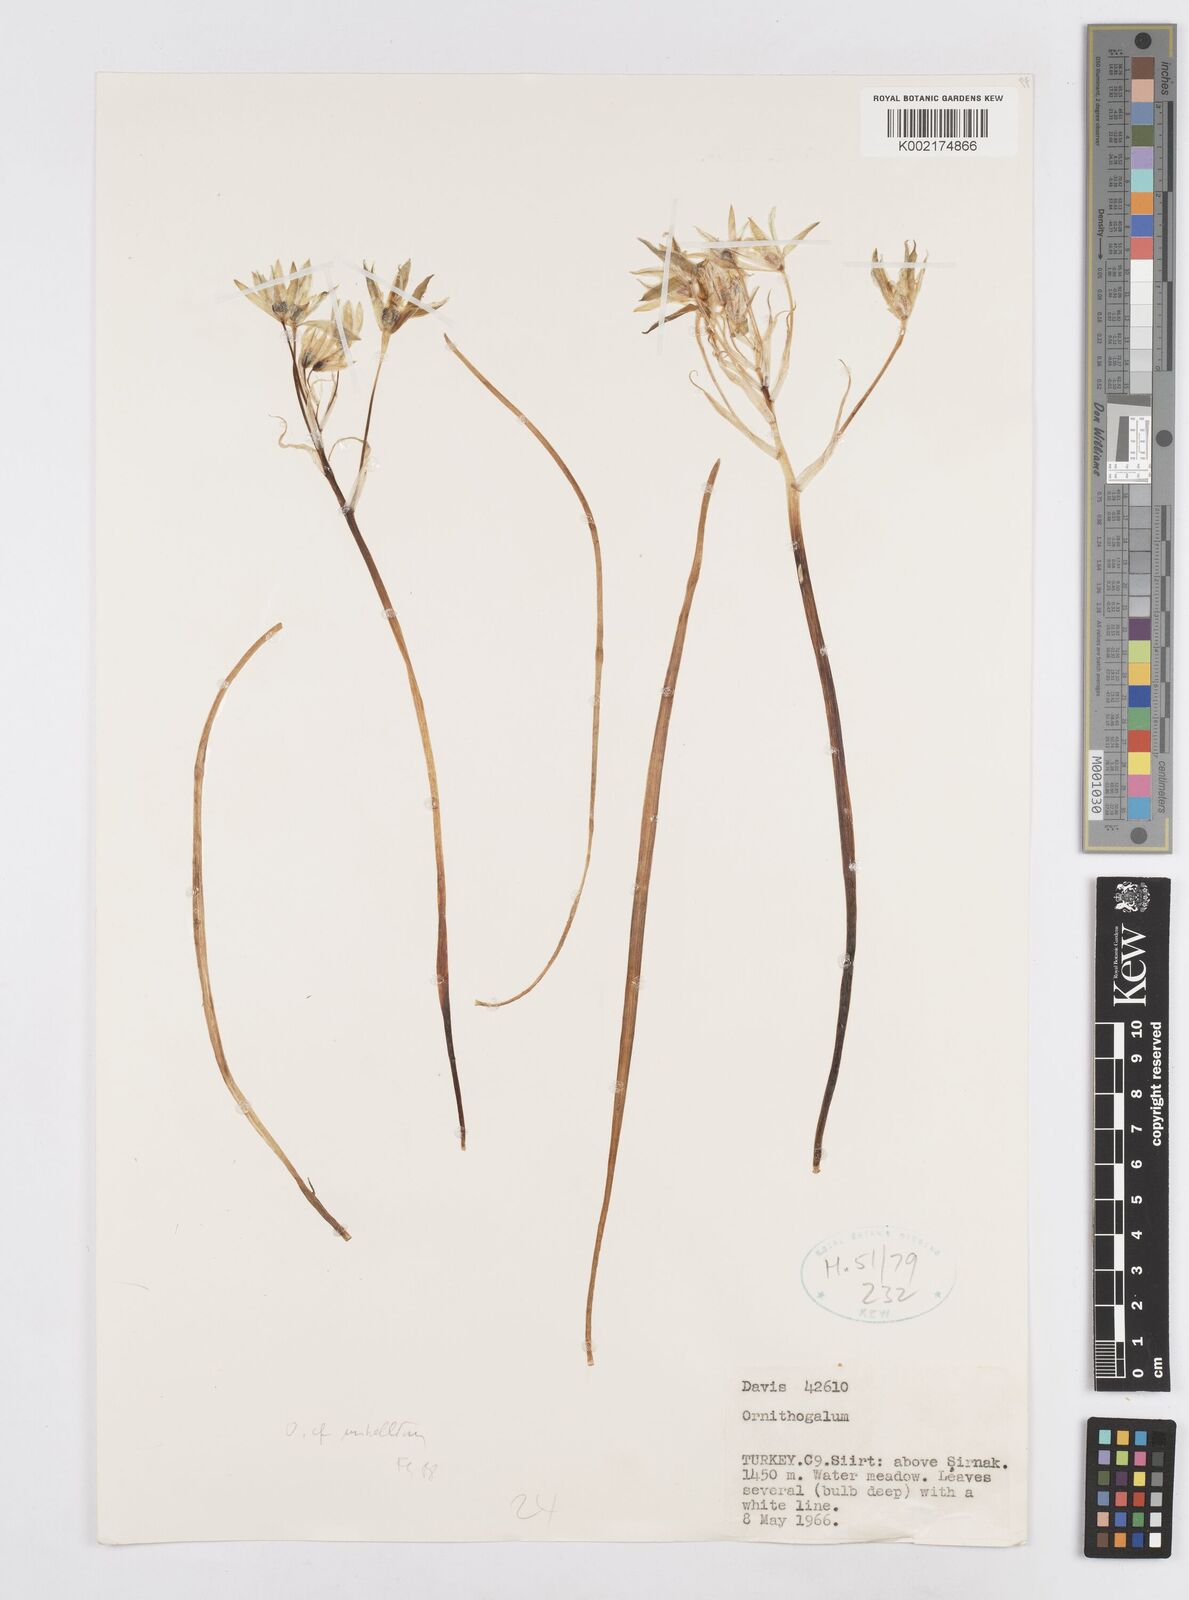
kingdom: Plantae
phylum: Tracheophyta
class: Liliopsida
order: Asparagales
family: Asparagaceae
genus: Ornithogalum
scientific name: Ornithogalum umbellatum
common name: Garden star-of-bethlehem
